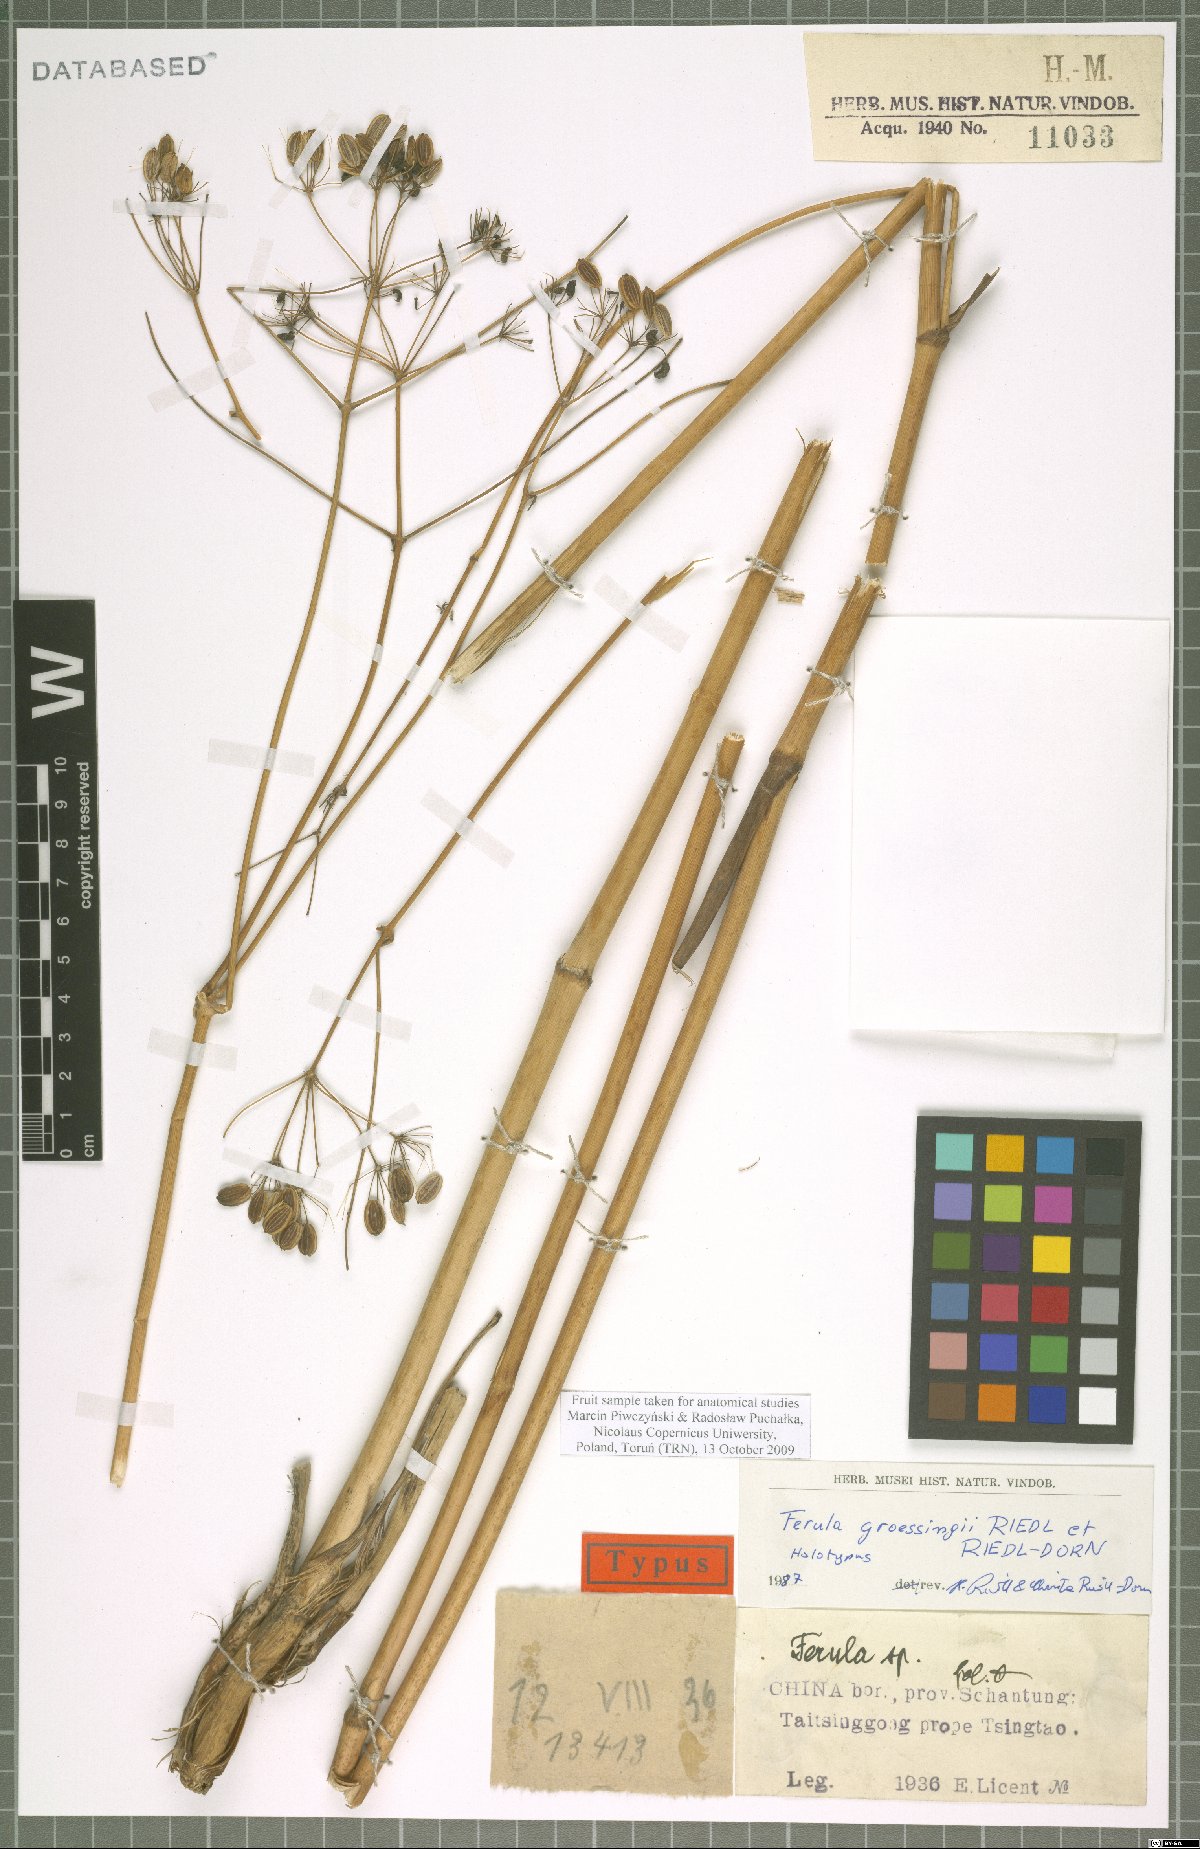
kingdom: Plantae
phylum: Tracheophyta
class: Magnoliopsida
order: Apiales
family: Apiaceae
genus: Ferula
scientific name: Ferula groessingii
